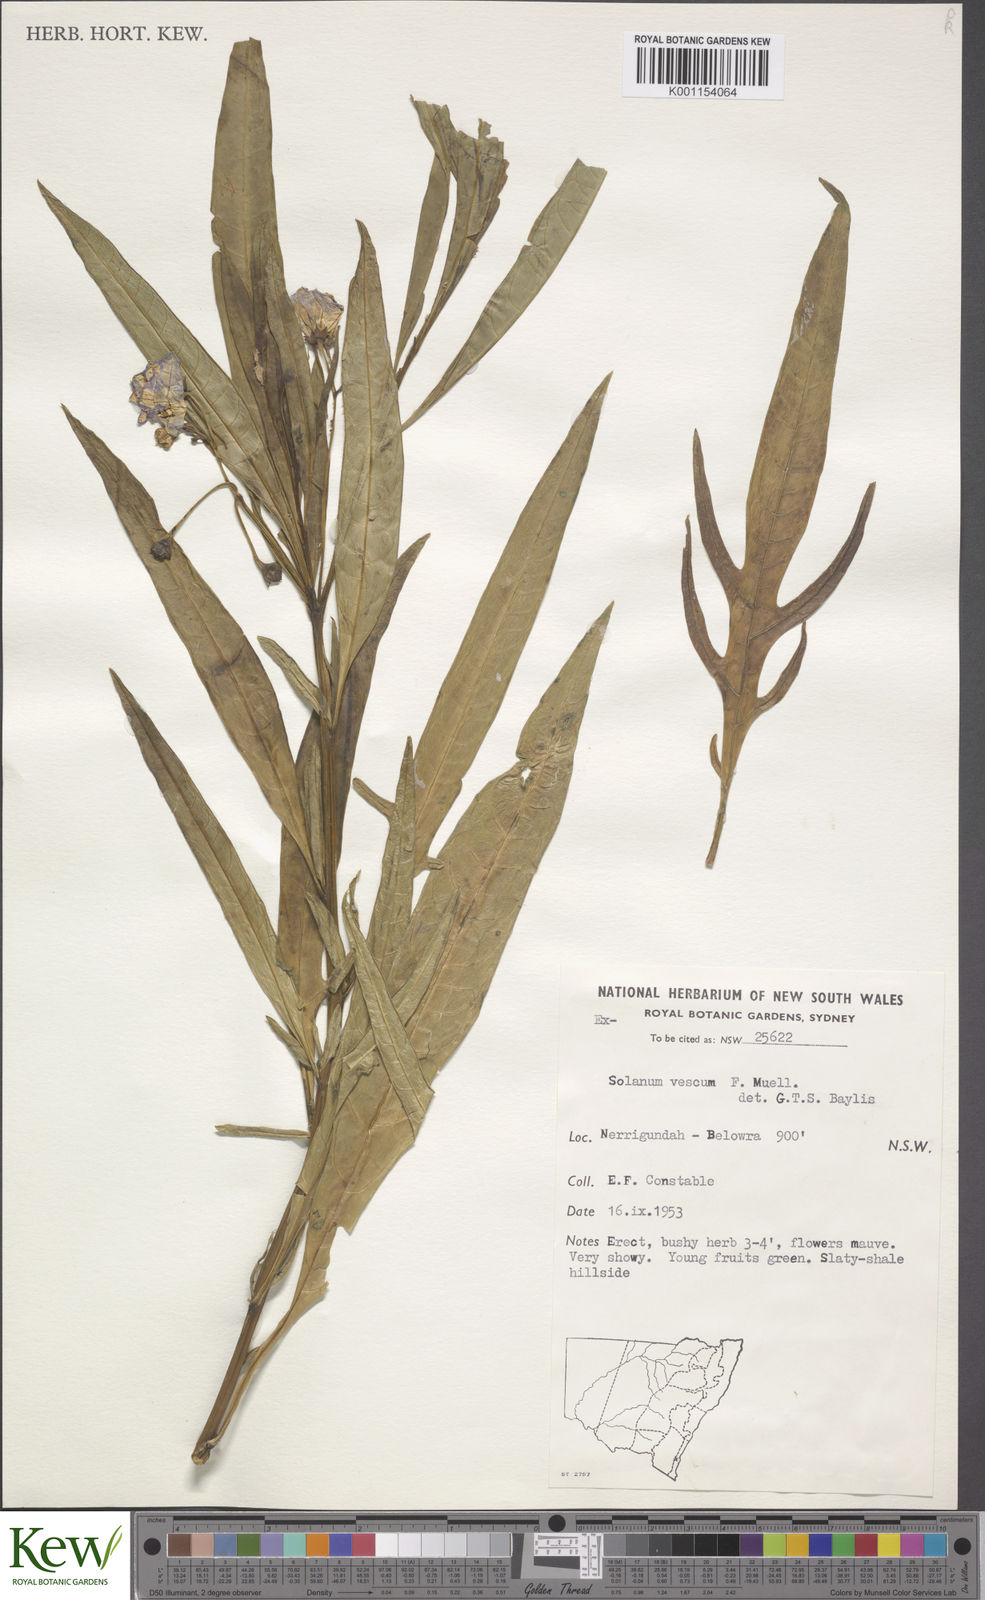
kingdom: Plantae
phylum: Tracheophyta
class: Magnoliopsida
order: Solanales
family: Solanaceae
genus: Solanum
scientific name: Solanum
